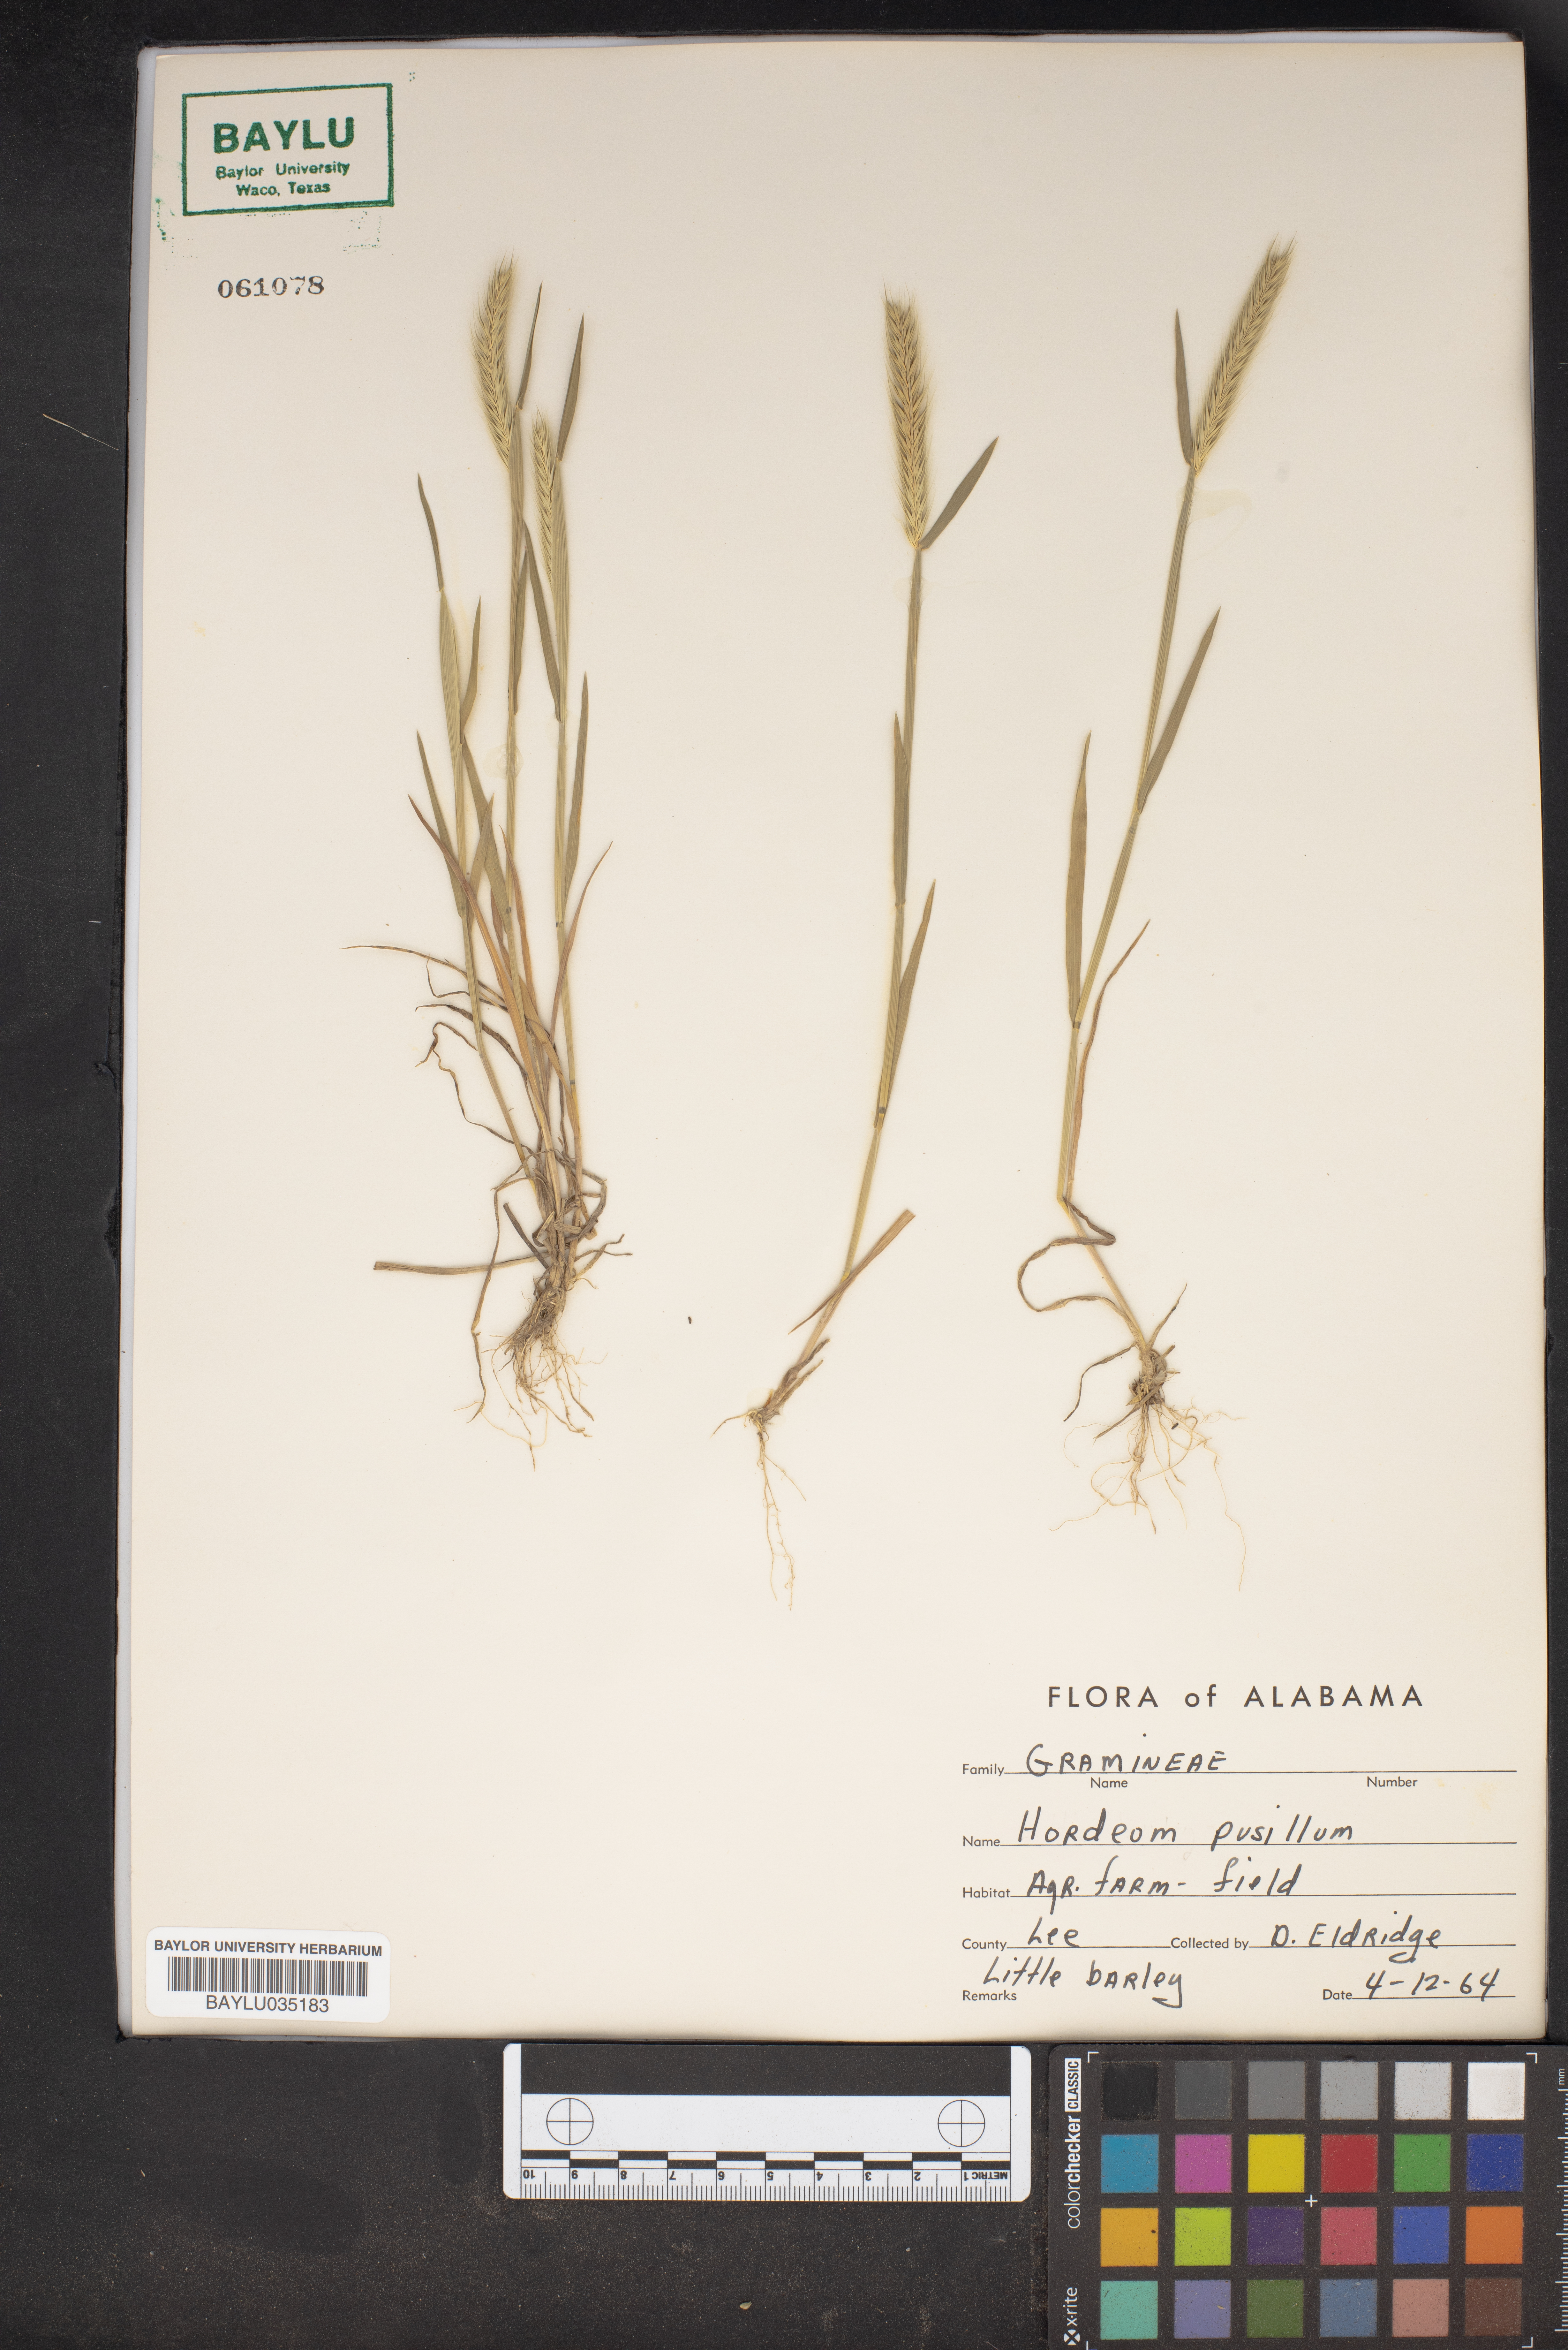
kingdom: Plantae
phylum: Tracheophyta
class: Liliopsida
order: Poales
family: Poaceae
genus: Hordeum
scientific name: Hordeum pusillum
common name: Little barley
